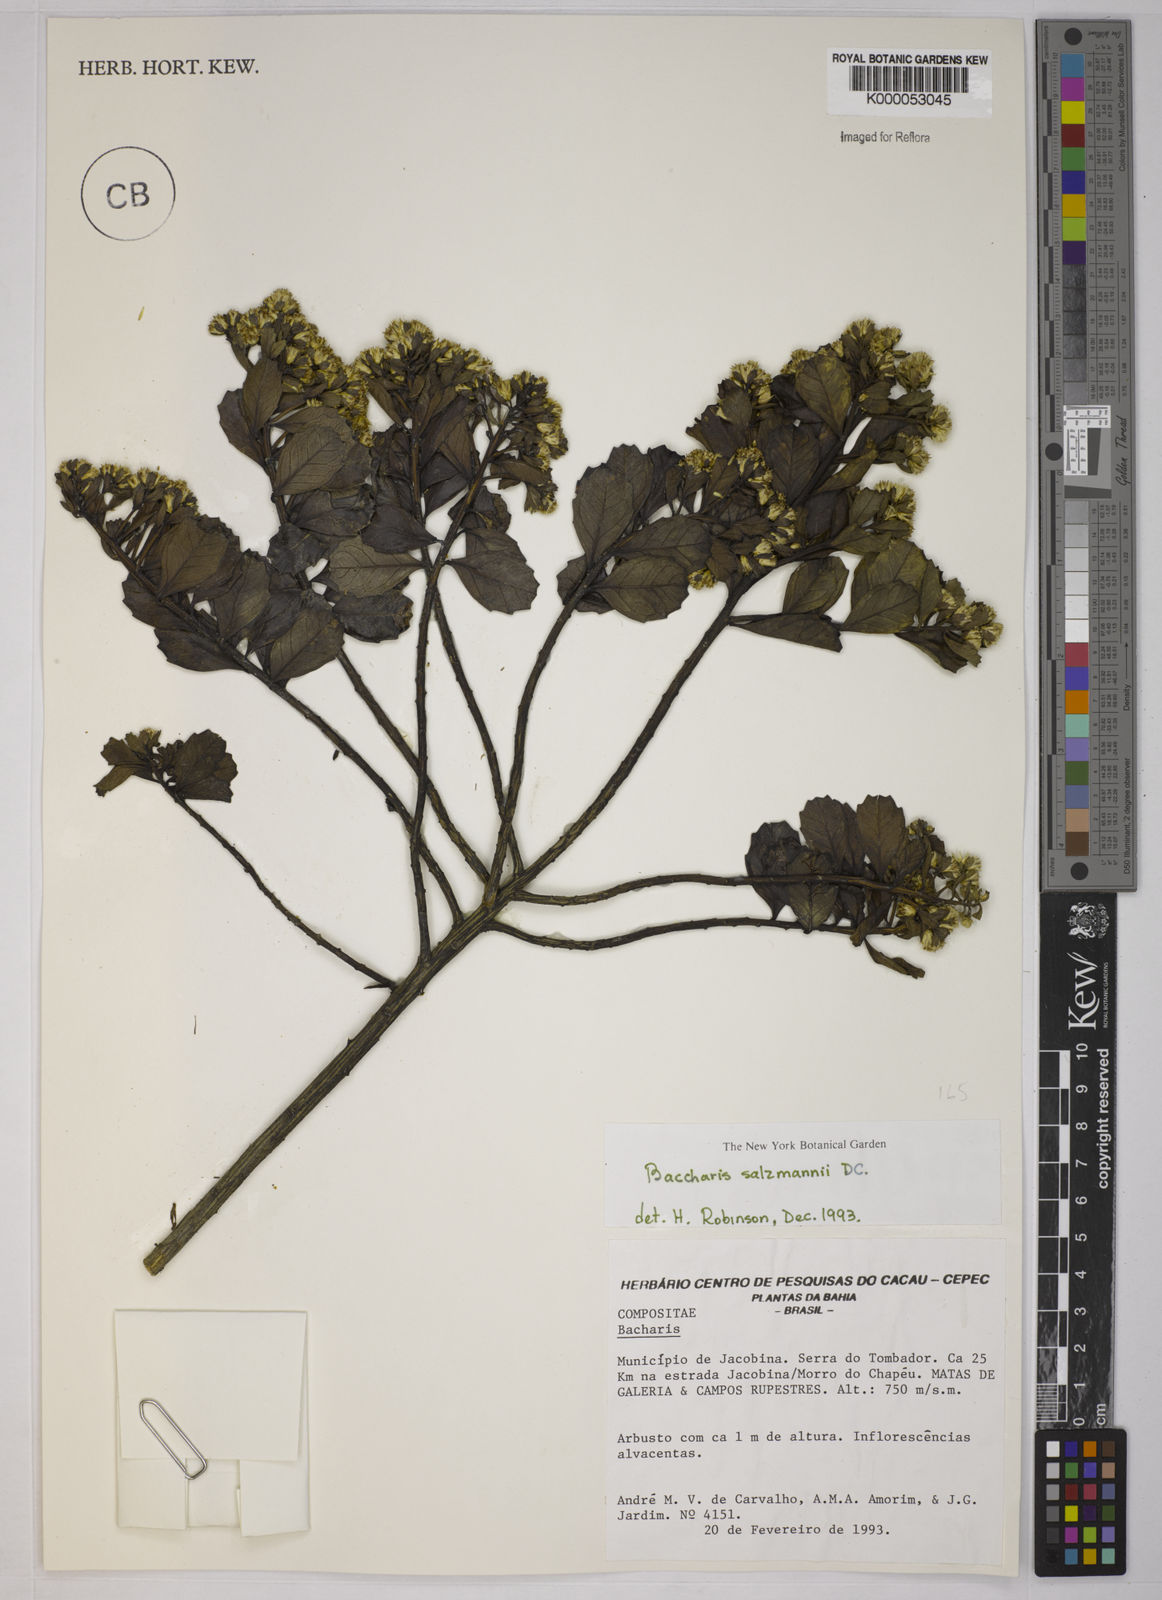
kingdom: Plantae
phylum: Tracheophyta
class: Magnoliopsida
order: Asterales
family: Asteraceae
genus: Baccharis
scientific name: Baccharis retusa
